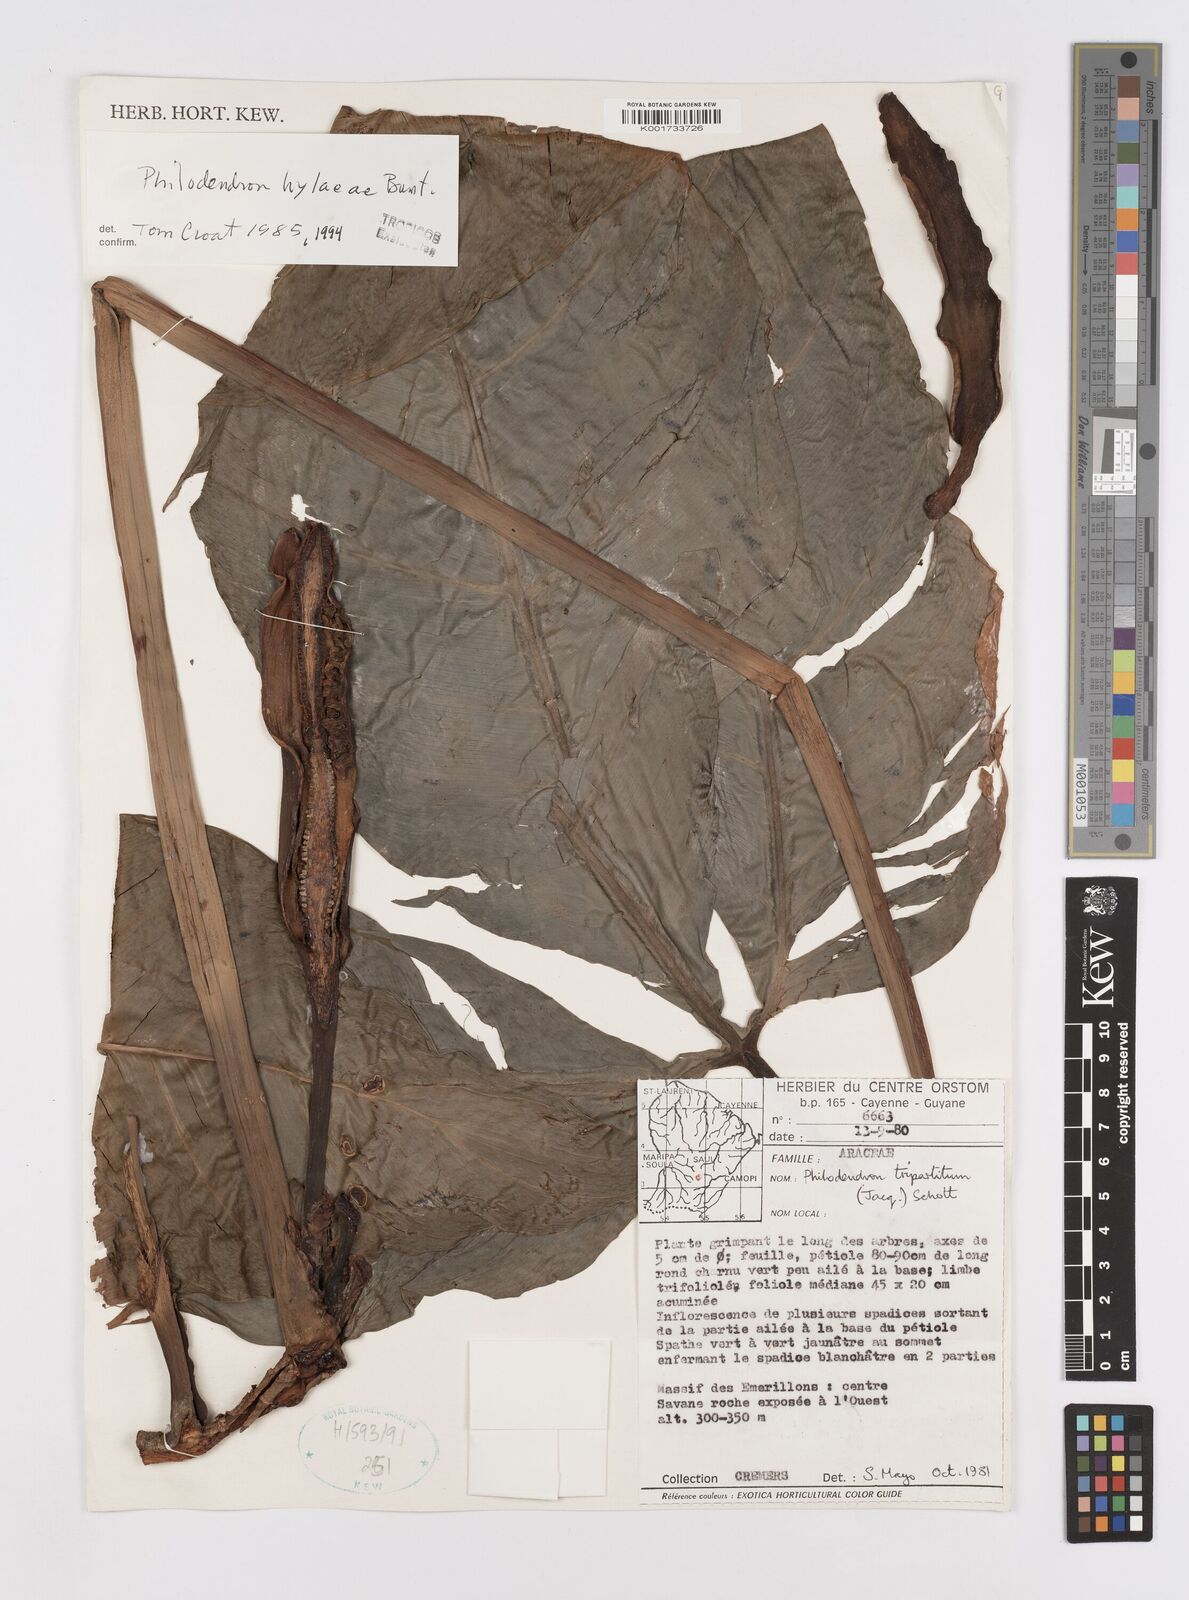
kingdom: Plantae
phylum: Tracheophyta
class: Liliopsida
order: Alismatales
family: Araceae
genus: Philodendron
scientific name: Philodendron hylaeae
